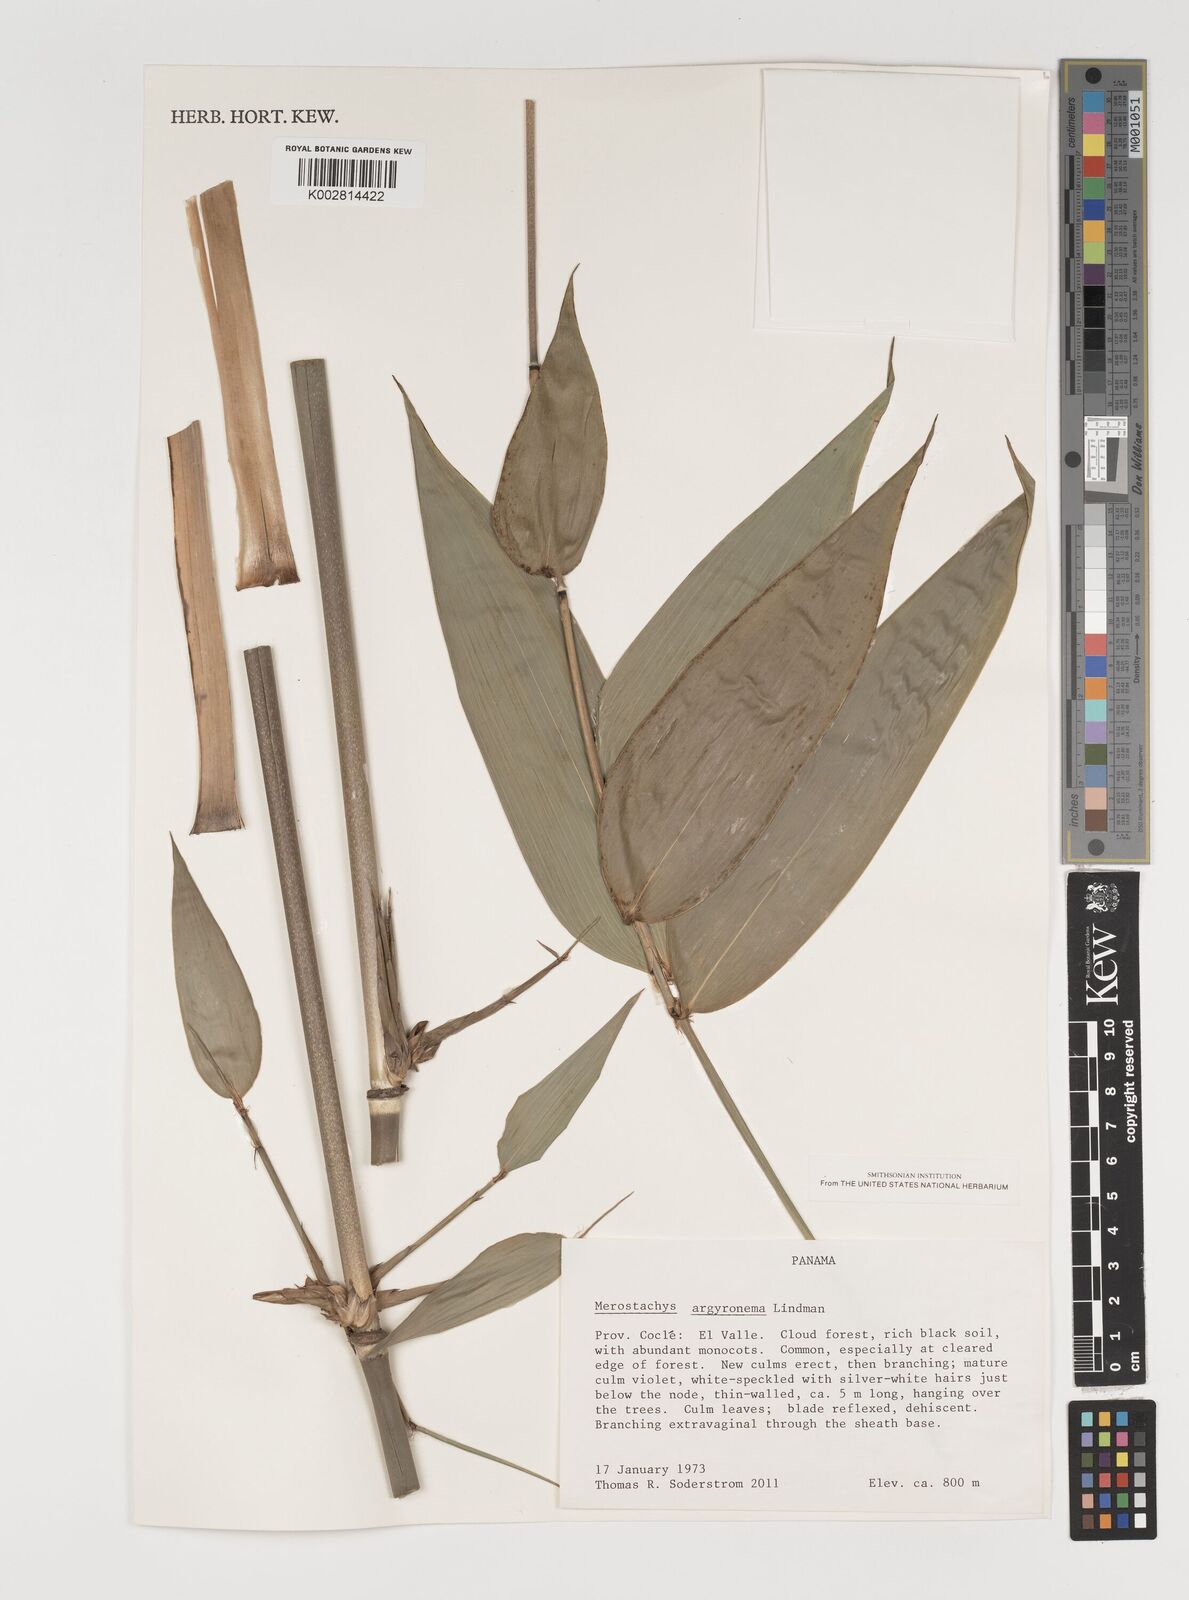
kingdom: Plantae
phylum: Tracheophyta
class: Liliopsida
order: Poales
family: Poaceae
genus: Merostachys
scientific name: Merostachys argyronema
